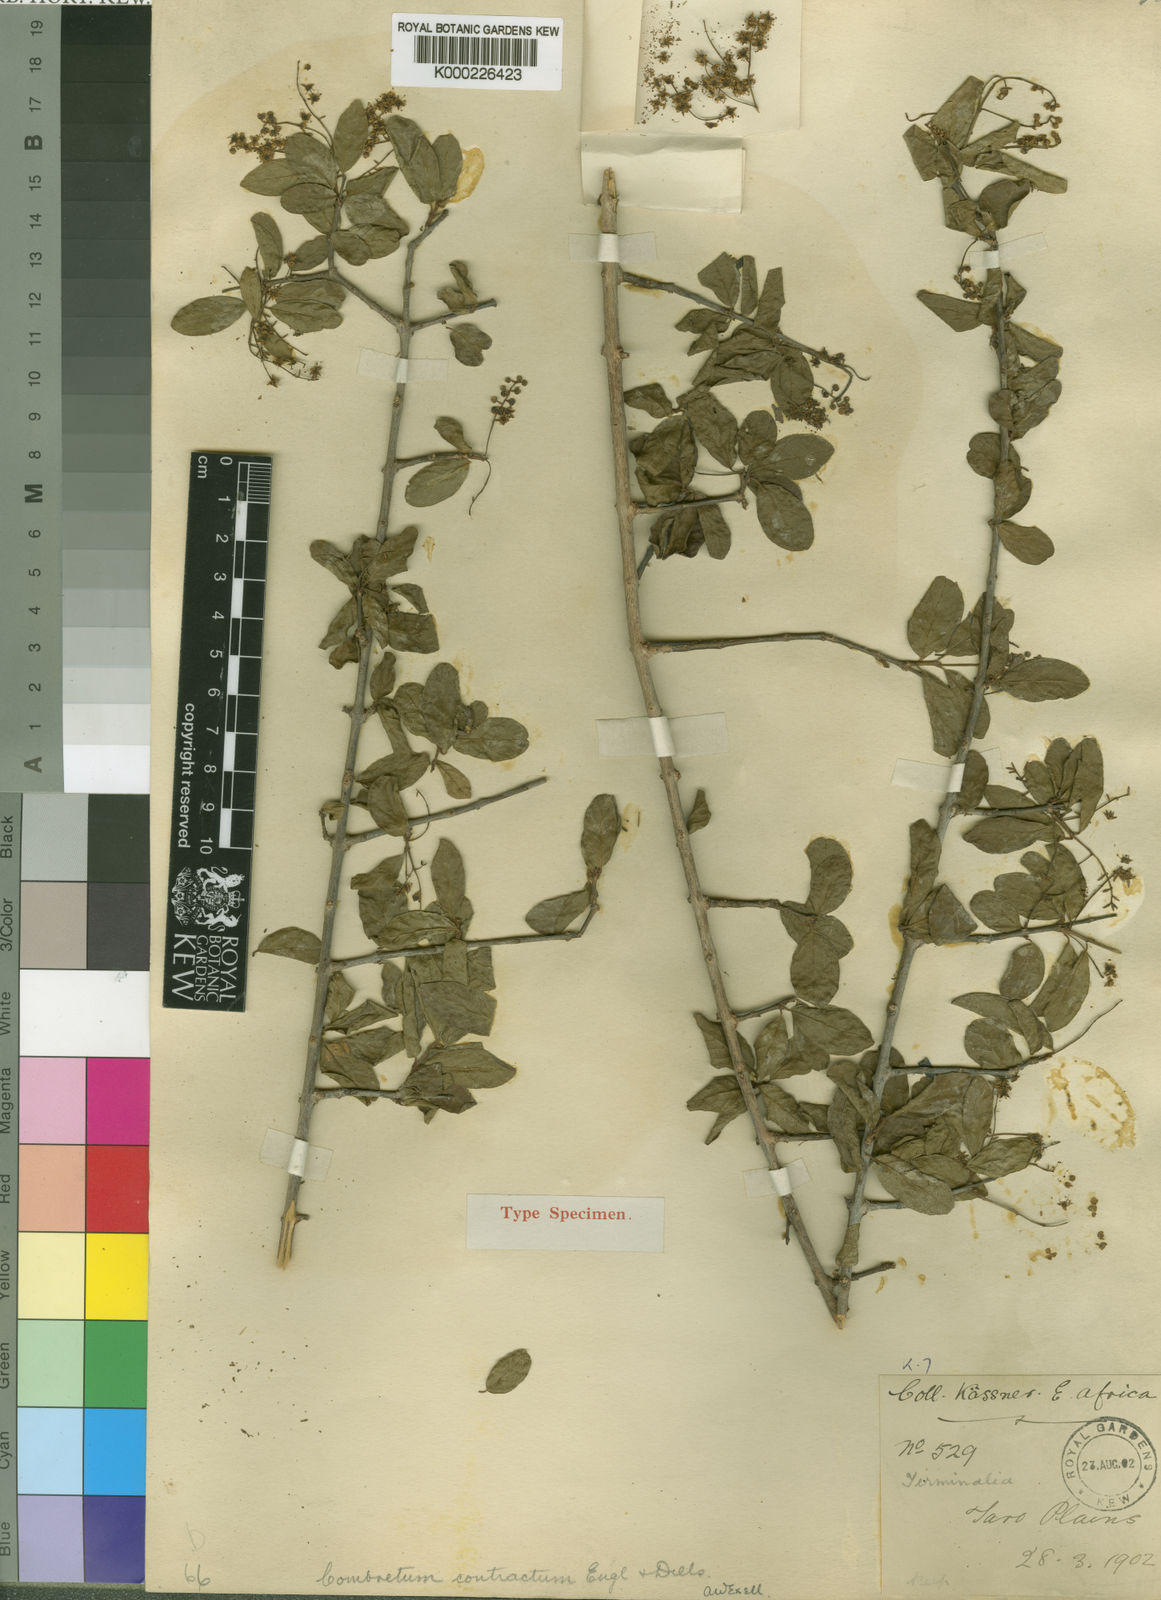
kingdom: Plantae
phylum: Tracheophyta
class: Magnoliopsida
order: Myrtales
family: Combretaceae
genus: Combretum
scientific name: Combretum contractum
